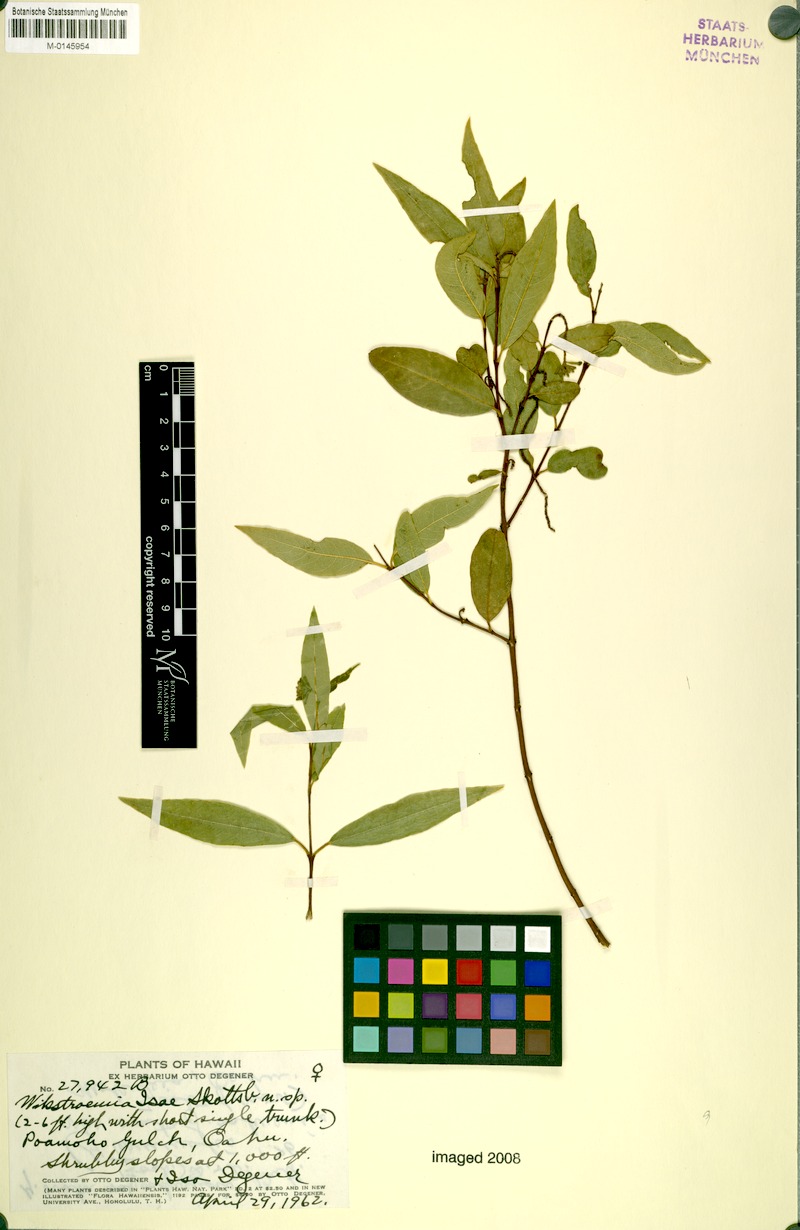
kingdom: Plantae
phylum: Tracheophyta
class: Magnoliopsida
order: Malvales
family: Thymelaeaceae
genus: Wikstroemia
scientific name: Wikstroemia oahuensis
